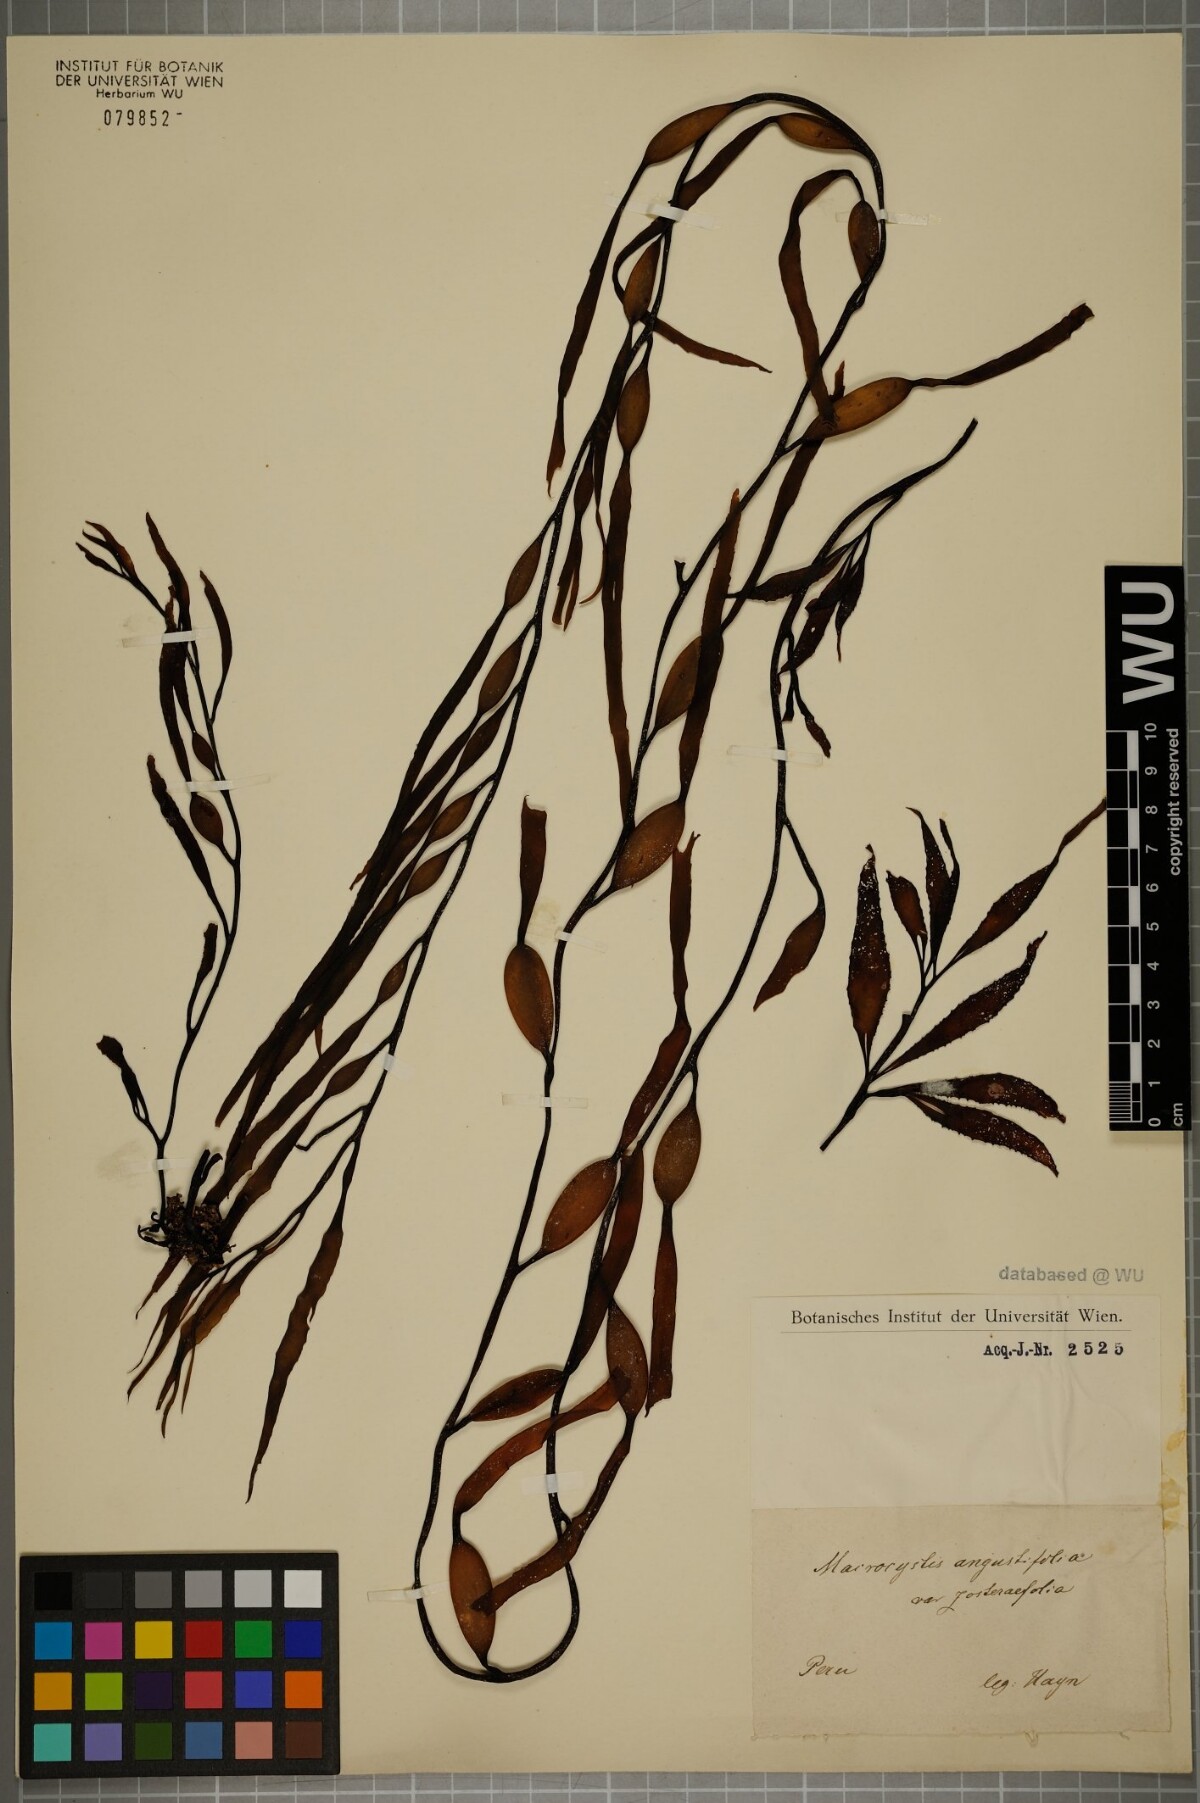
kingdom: Chromista
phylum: Ochrophyta
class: Phaeophyceae
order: Laminariales
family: Laminariaceae
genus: Macrocystis
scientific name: Macrocystis angustifolia
